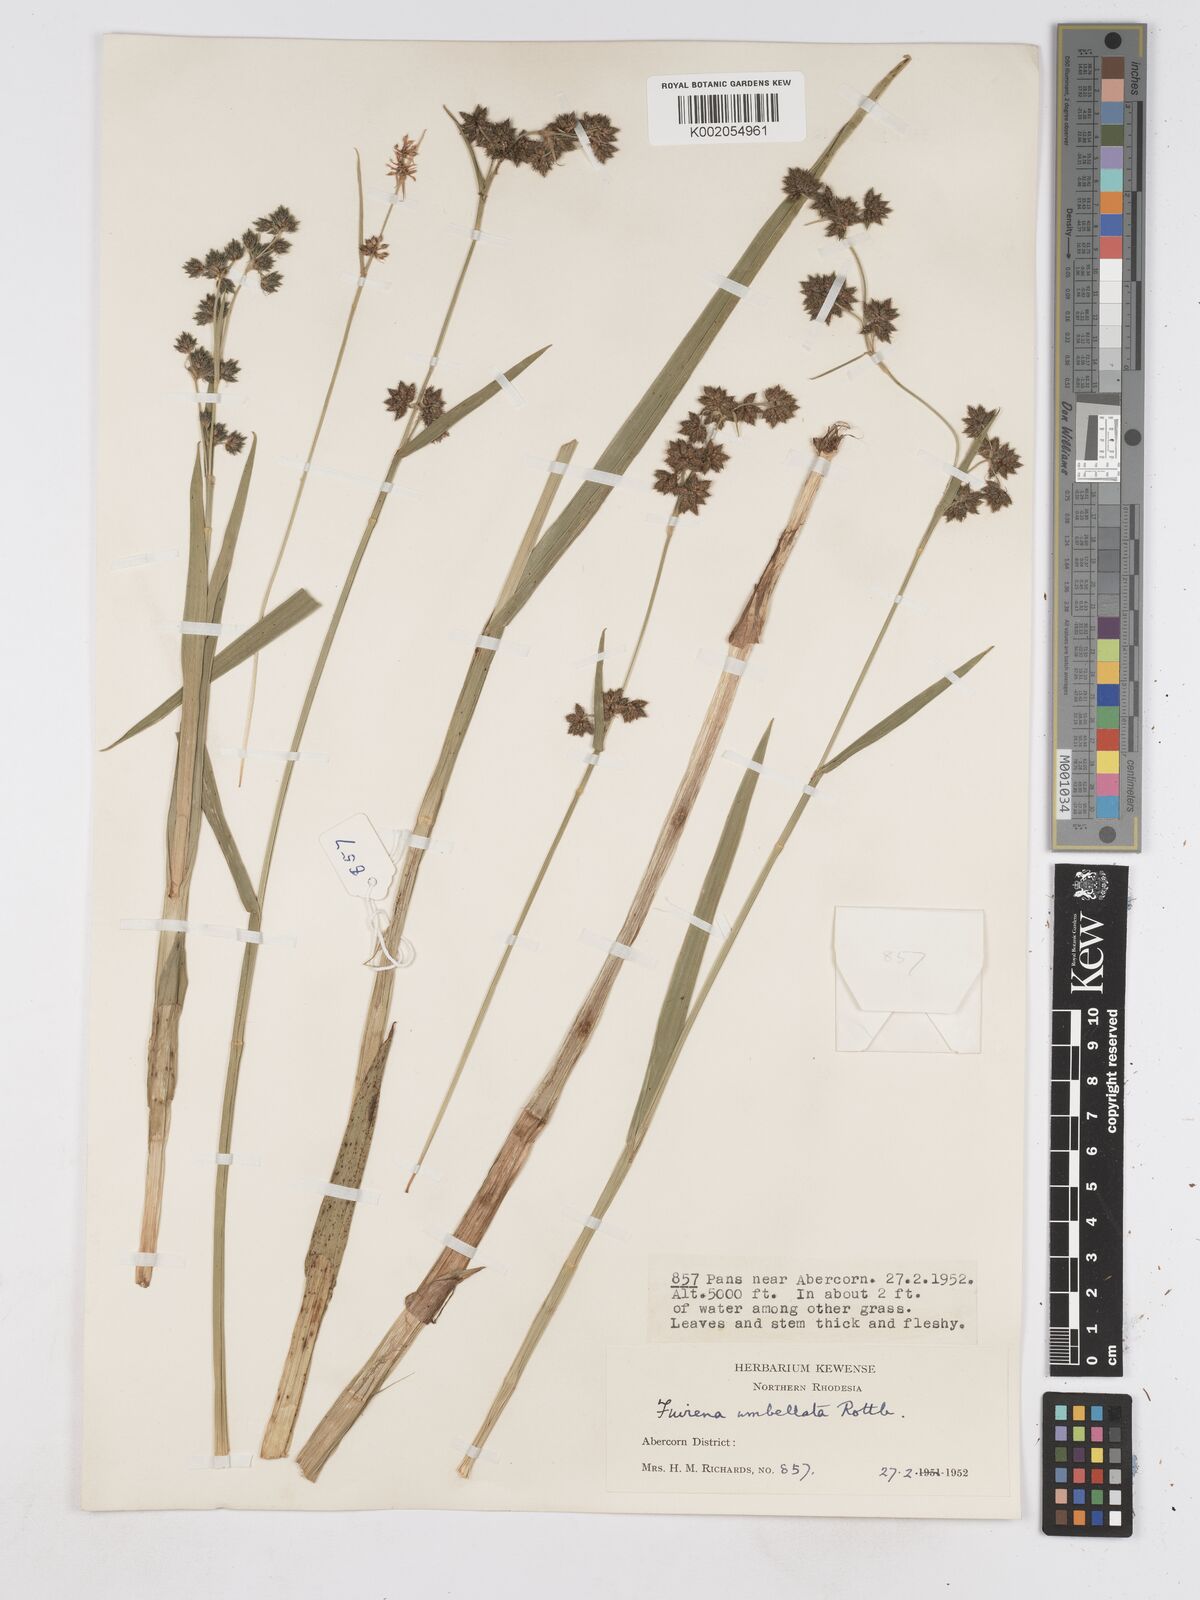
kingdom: Plantae
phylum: Tracheophyta
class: Liliopsida
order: Poales
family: Cyperaceae
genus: Fuirena
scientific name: Fuirena umbellata
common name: Yefen
